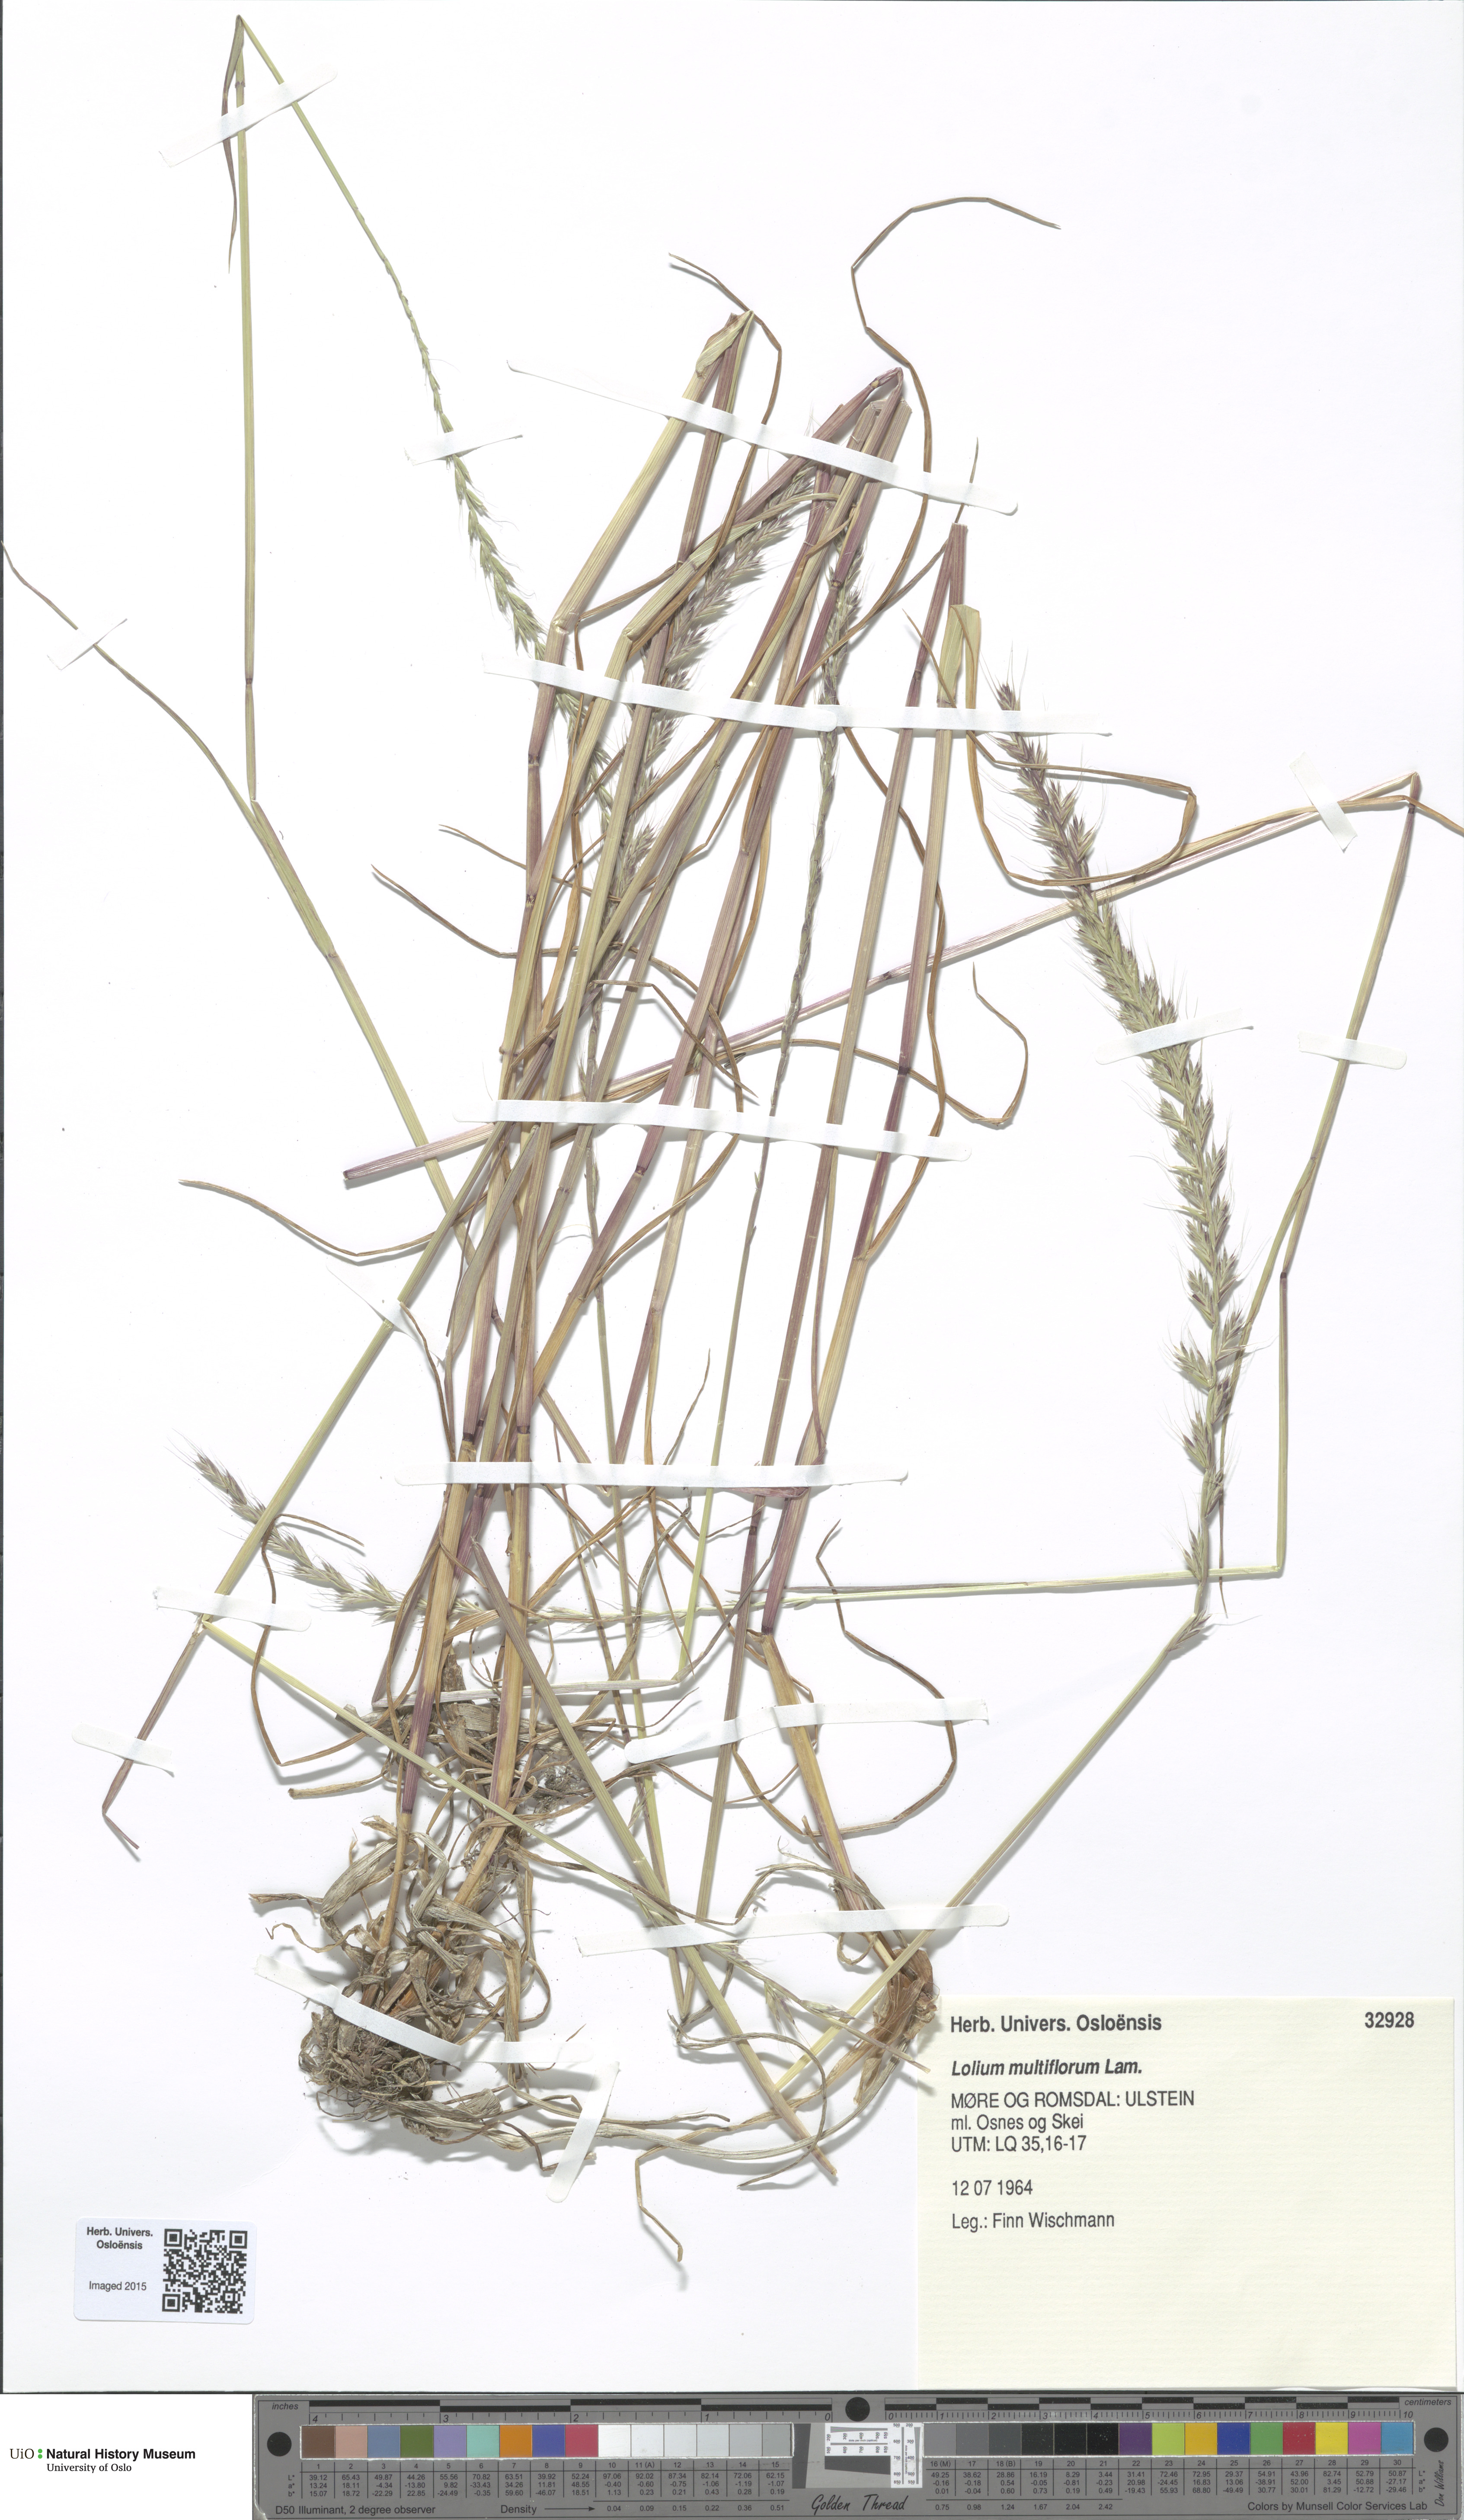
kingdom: Plantae
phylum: Tracheophyta
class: Liliopsida
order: Poales
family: Poaceae
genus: Lolium
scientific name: Lolium multiflorum
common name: Annual ryegrass
